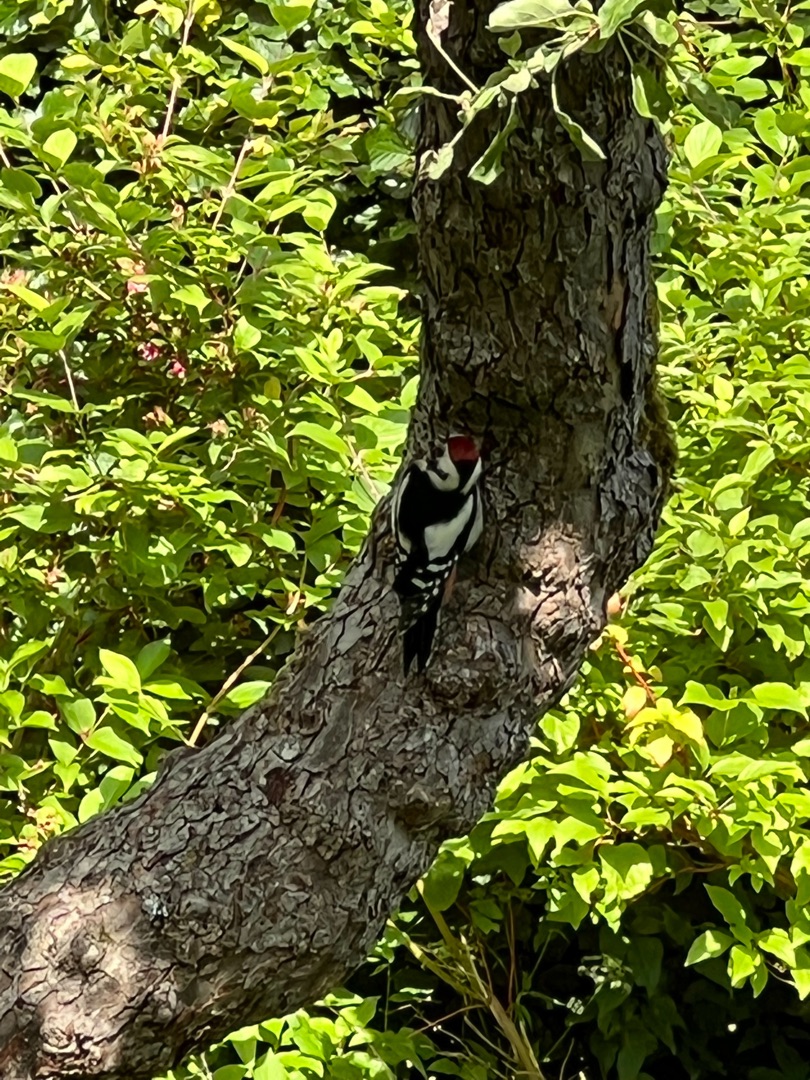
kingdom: Animalia
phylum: Chordata
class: Aves
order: Piciformes
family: Picidae
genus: Dendrocopos
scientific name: Dendrocopos major
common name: Stor flagspætte
